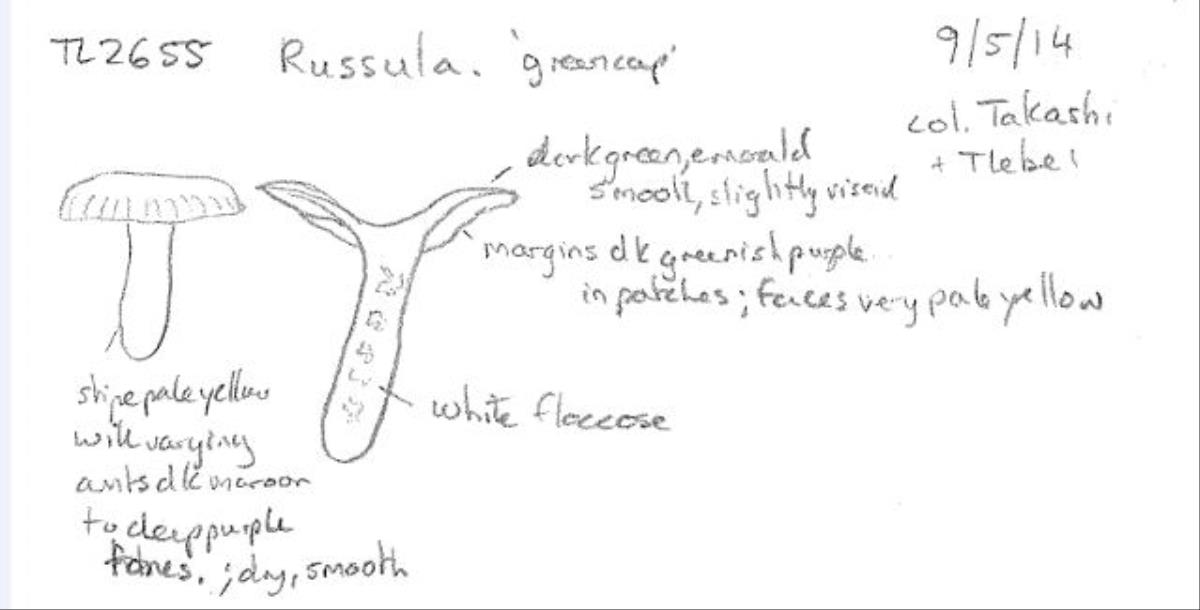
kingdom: Fungi
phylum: Basidiomycota
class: Agaricomycetes
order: Russulales
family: Russulaceae
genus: Russula
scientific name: Russula
